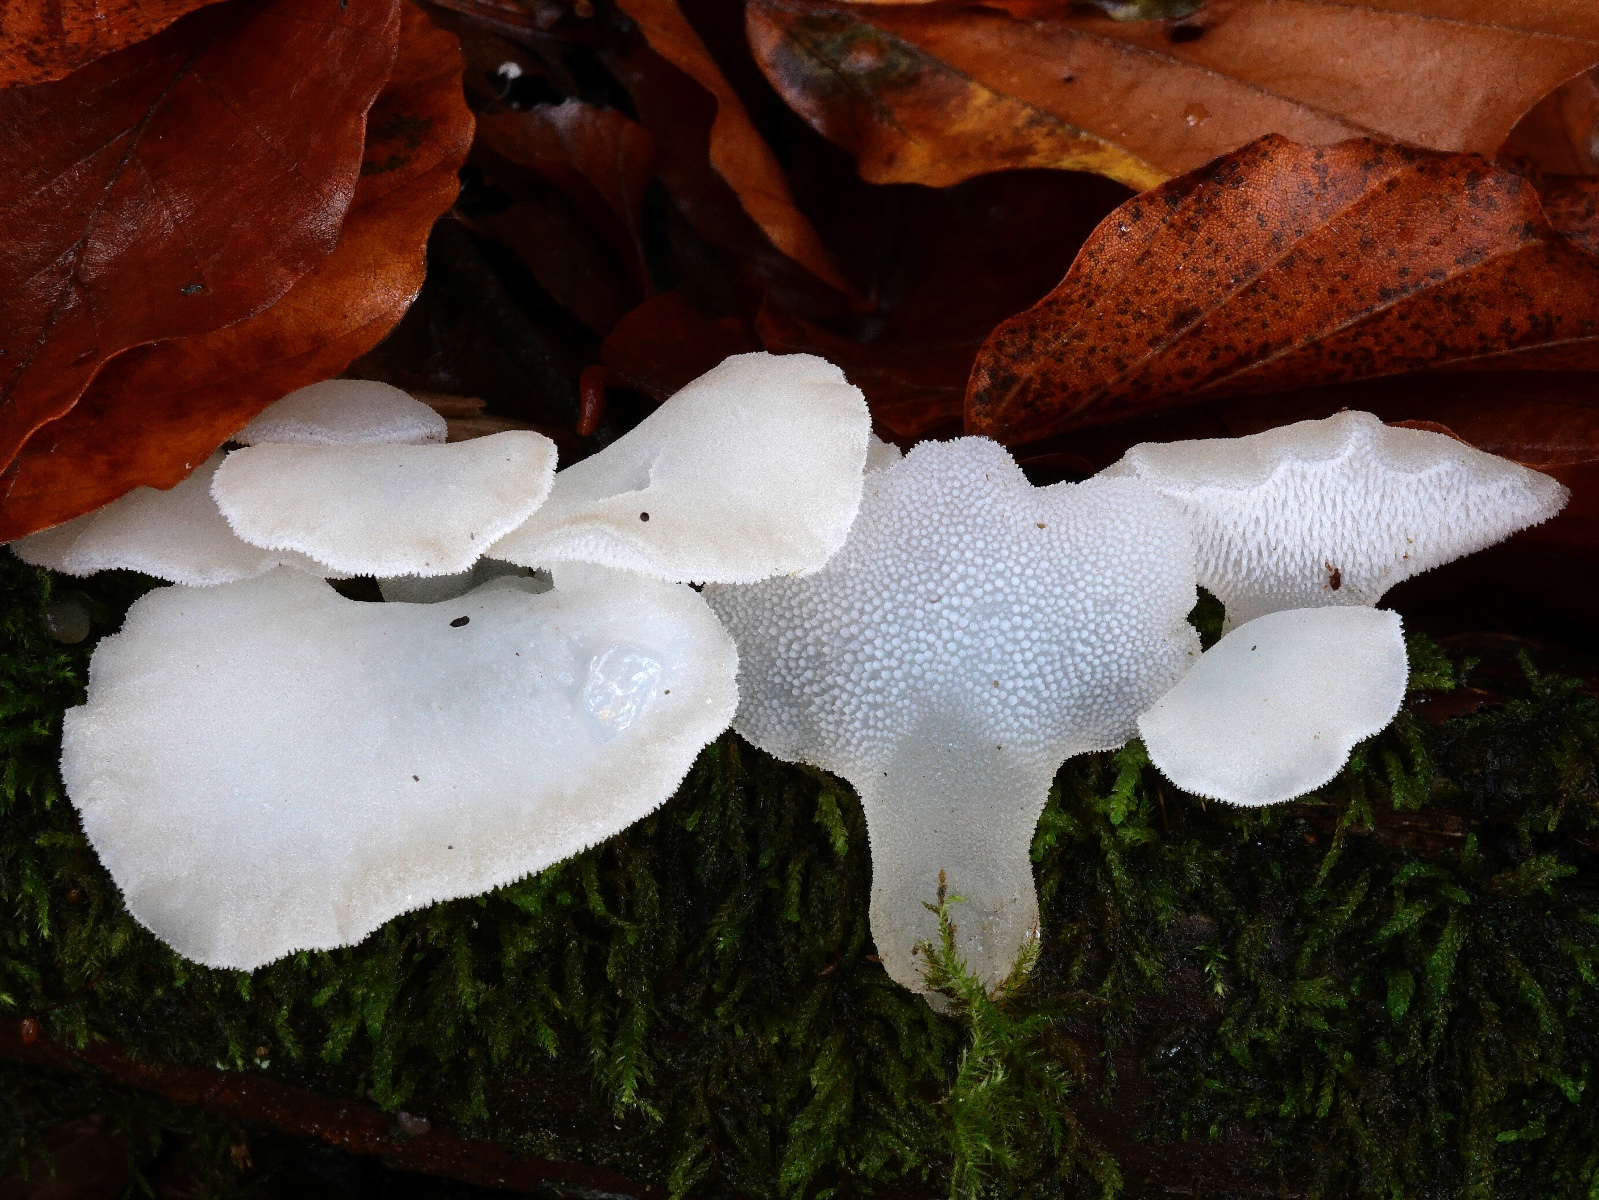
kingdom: Fungi
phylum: Basidiomycota
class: Agaricomycetes
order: Auriculariales
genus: Pseudohydnum
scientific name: Pseudohydnum gelatinosum
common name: bævretand
